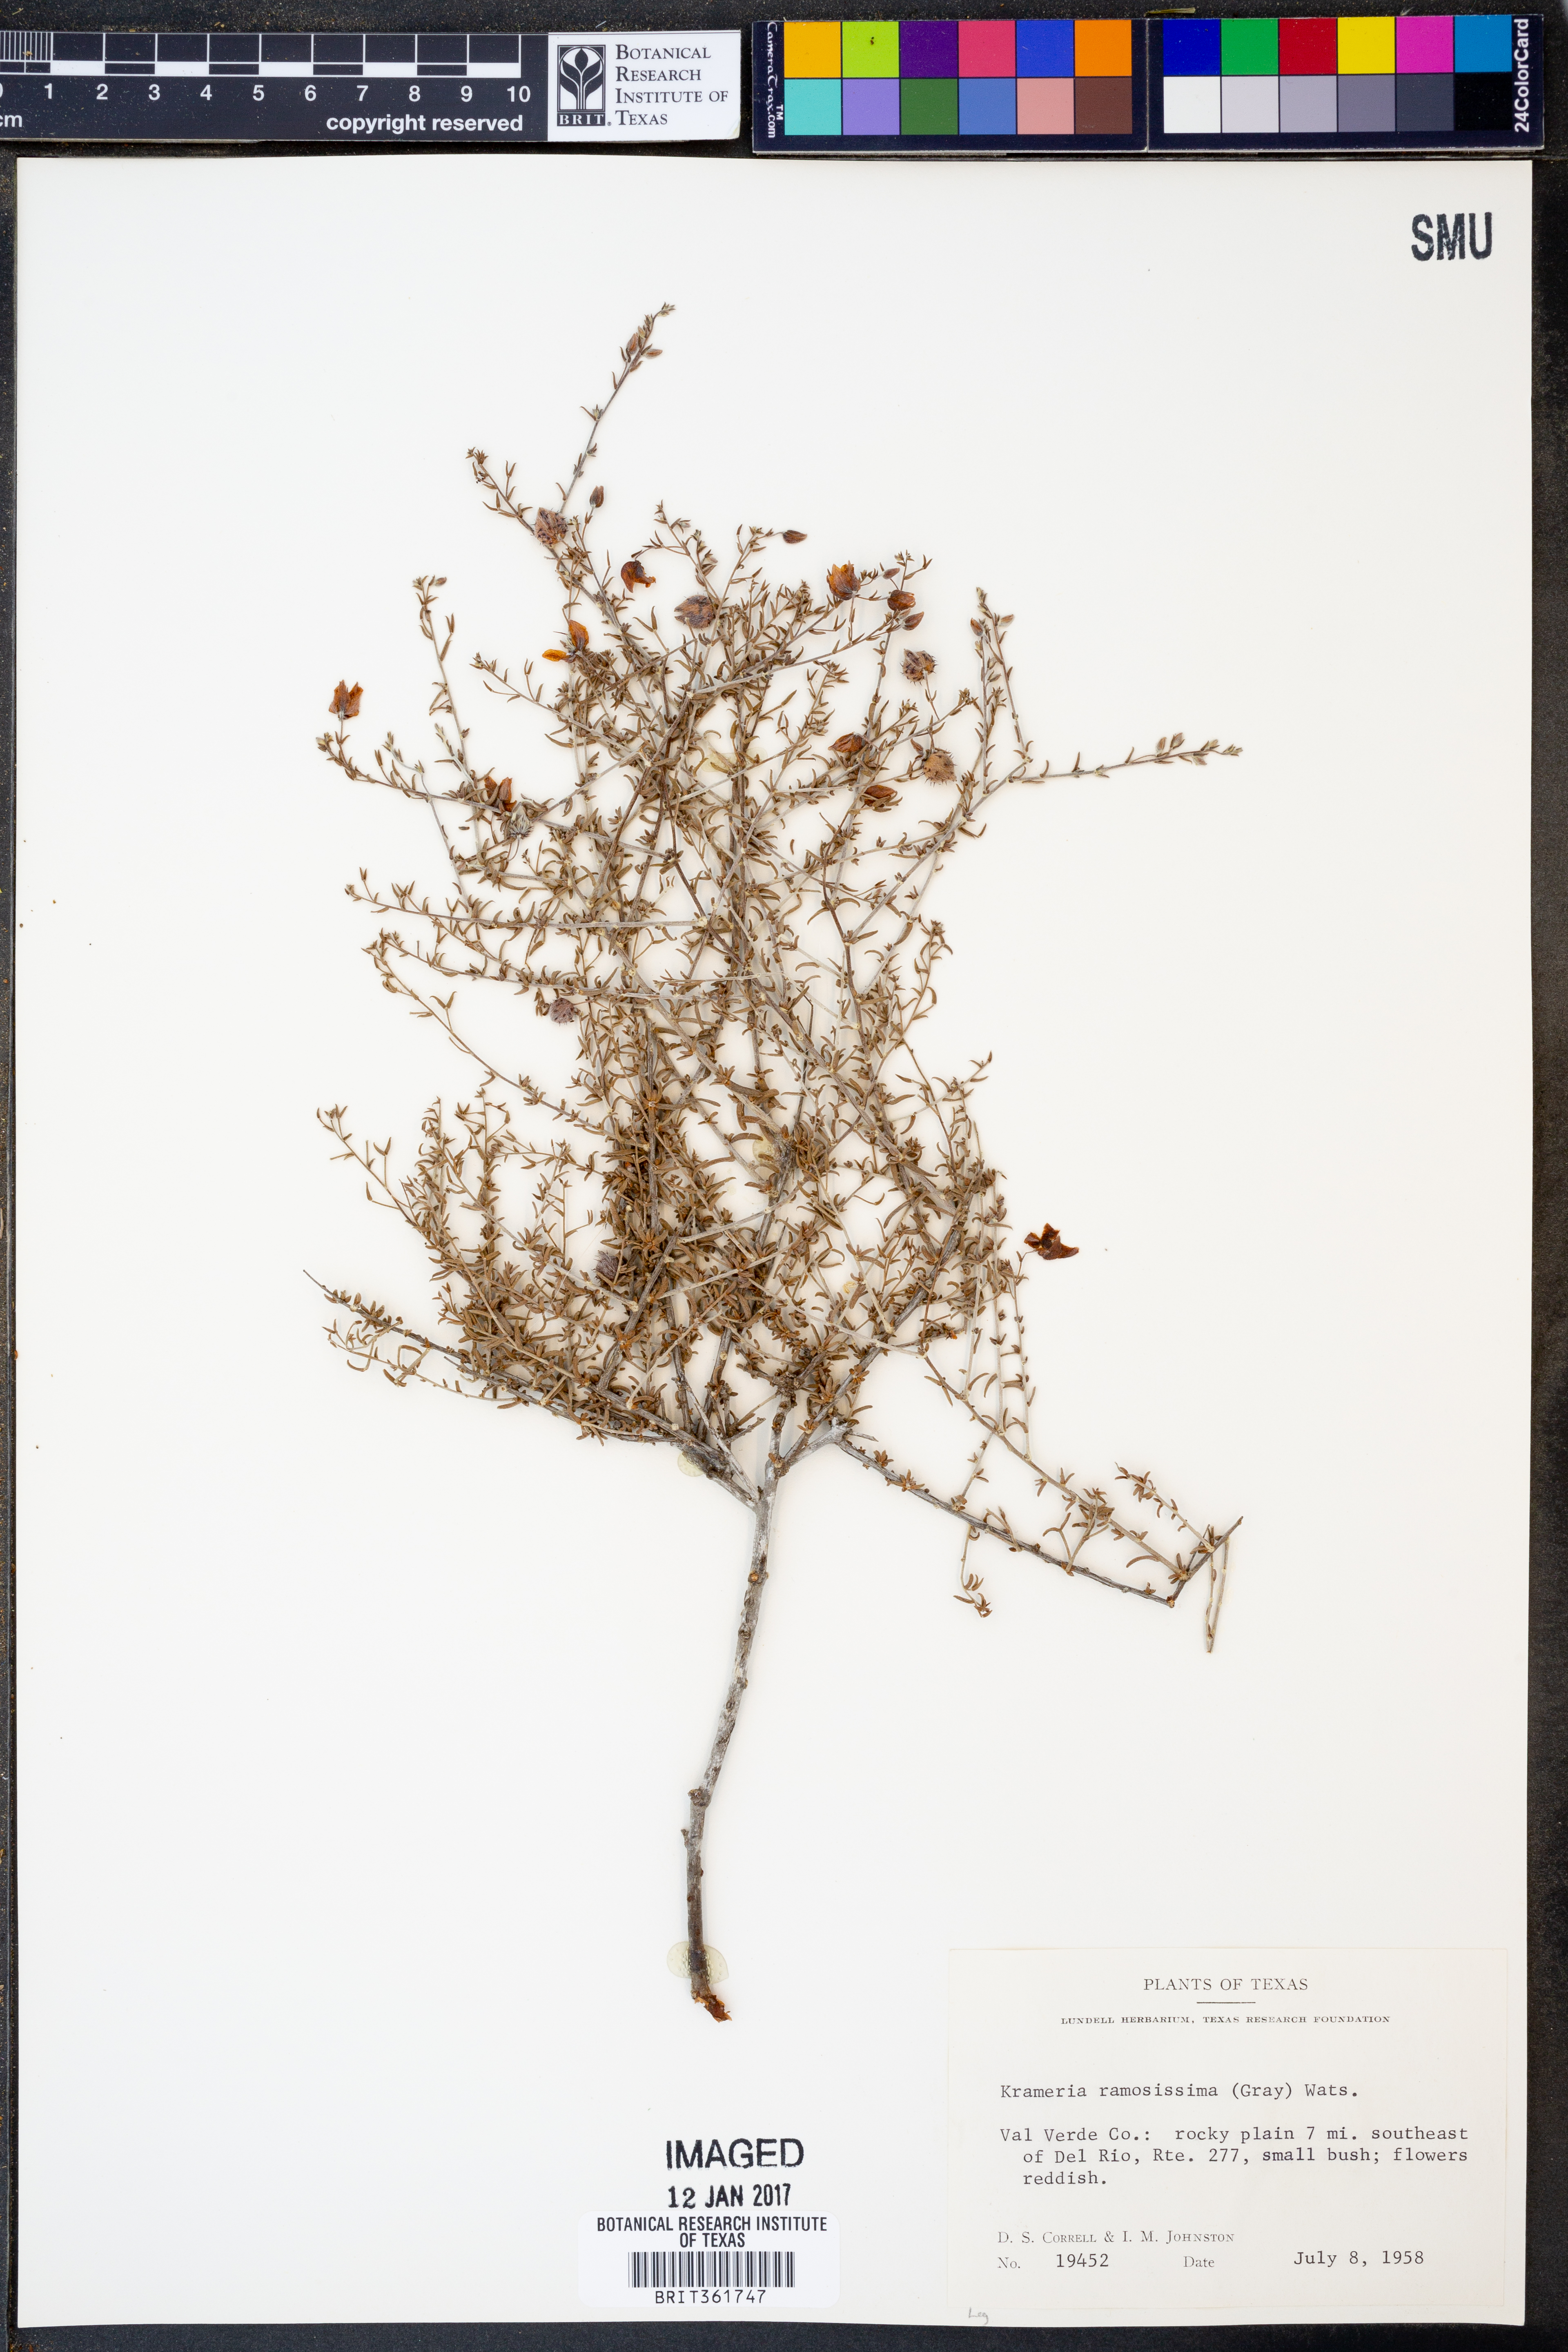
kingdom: Plantae
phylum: Tracheophyta
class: Magnoliopsida
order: Zygophyllales
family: Krameriaceae
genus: Krameria
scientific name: Krameria ramosissima
